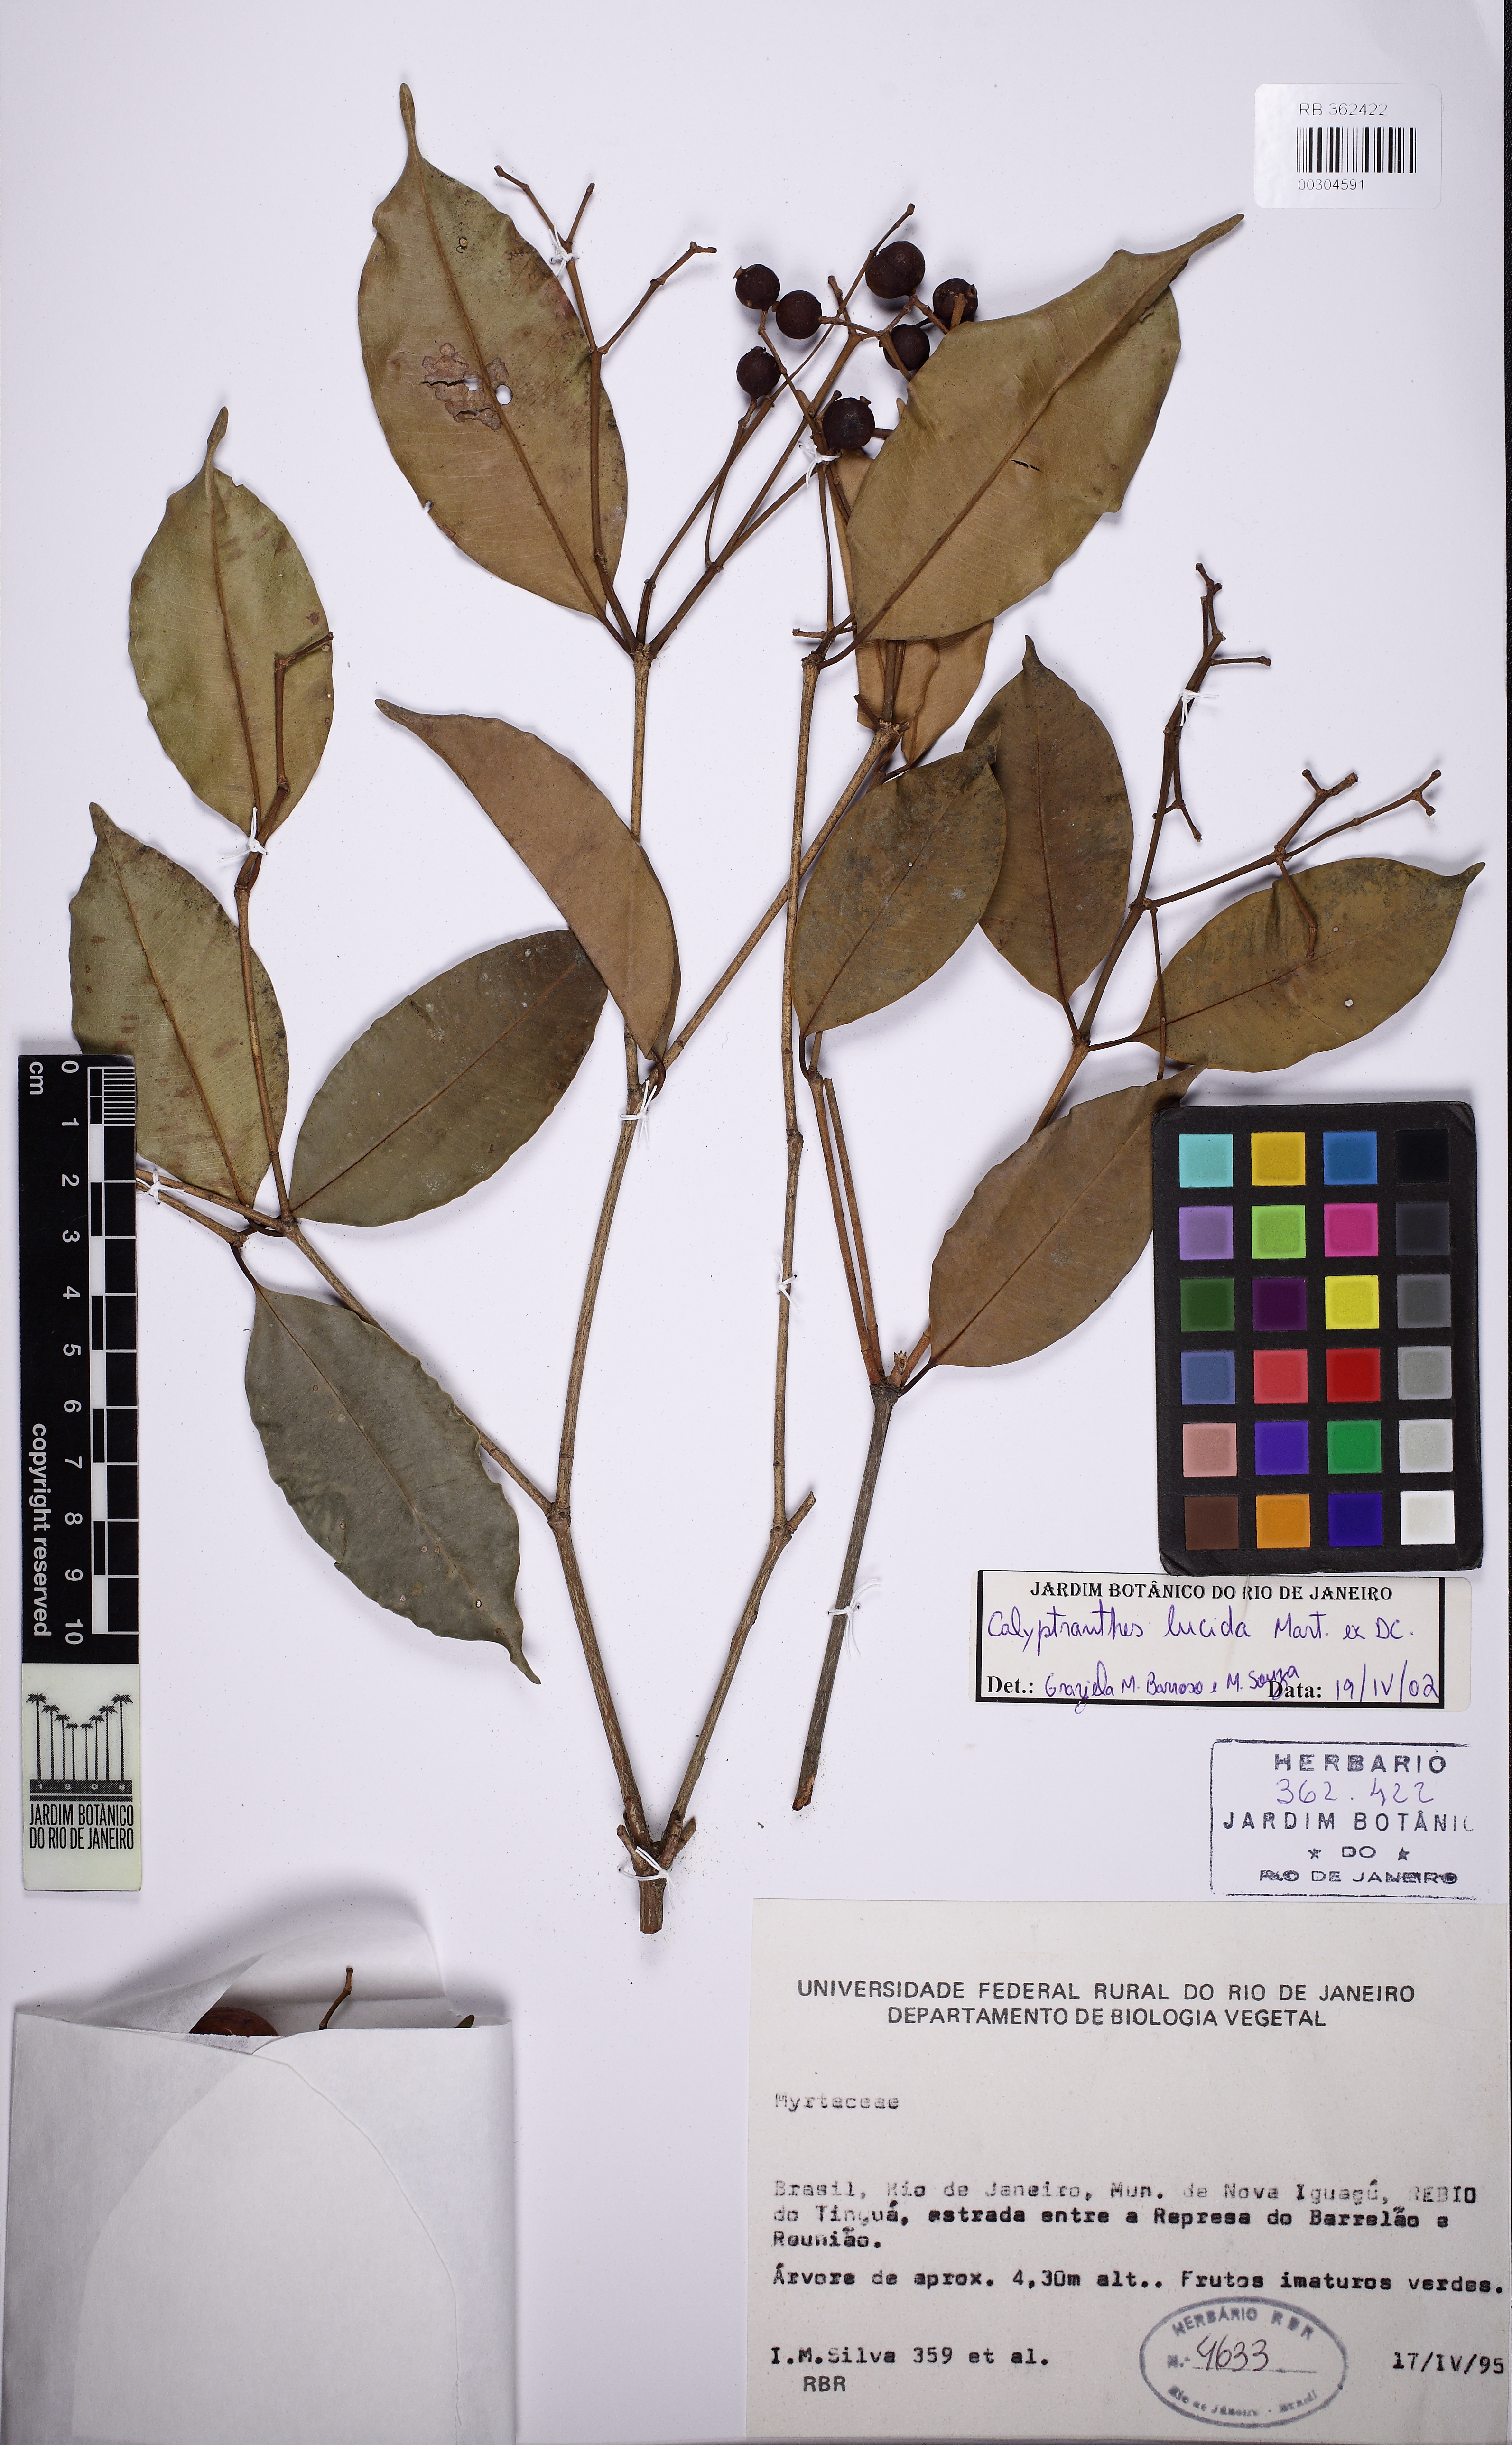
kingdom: Plantae
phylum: Tracheophyta
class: Magnoliopsida
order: Myrtales
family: Myrtaceae
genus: Myrcia
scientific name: Myrcia neolucida
